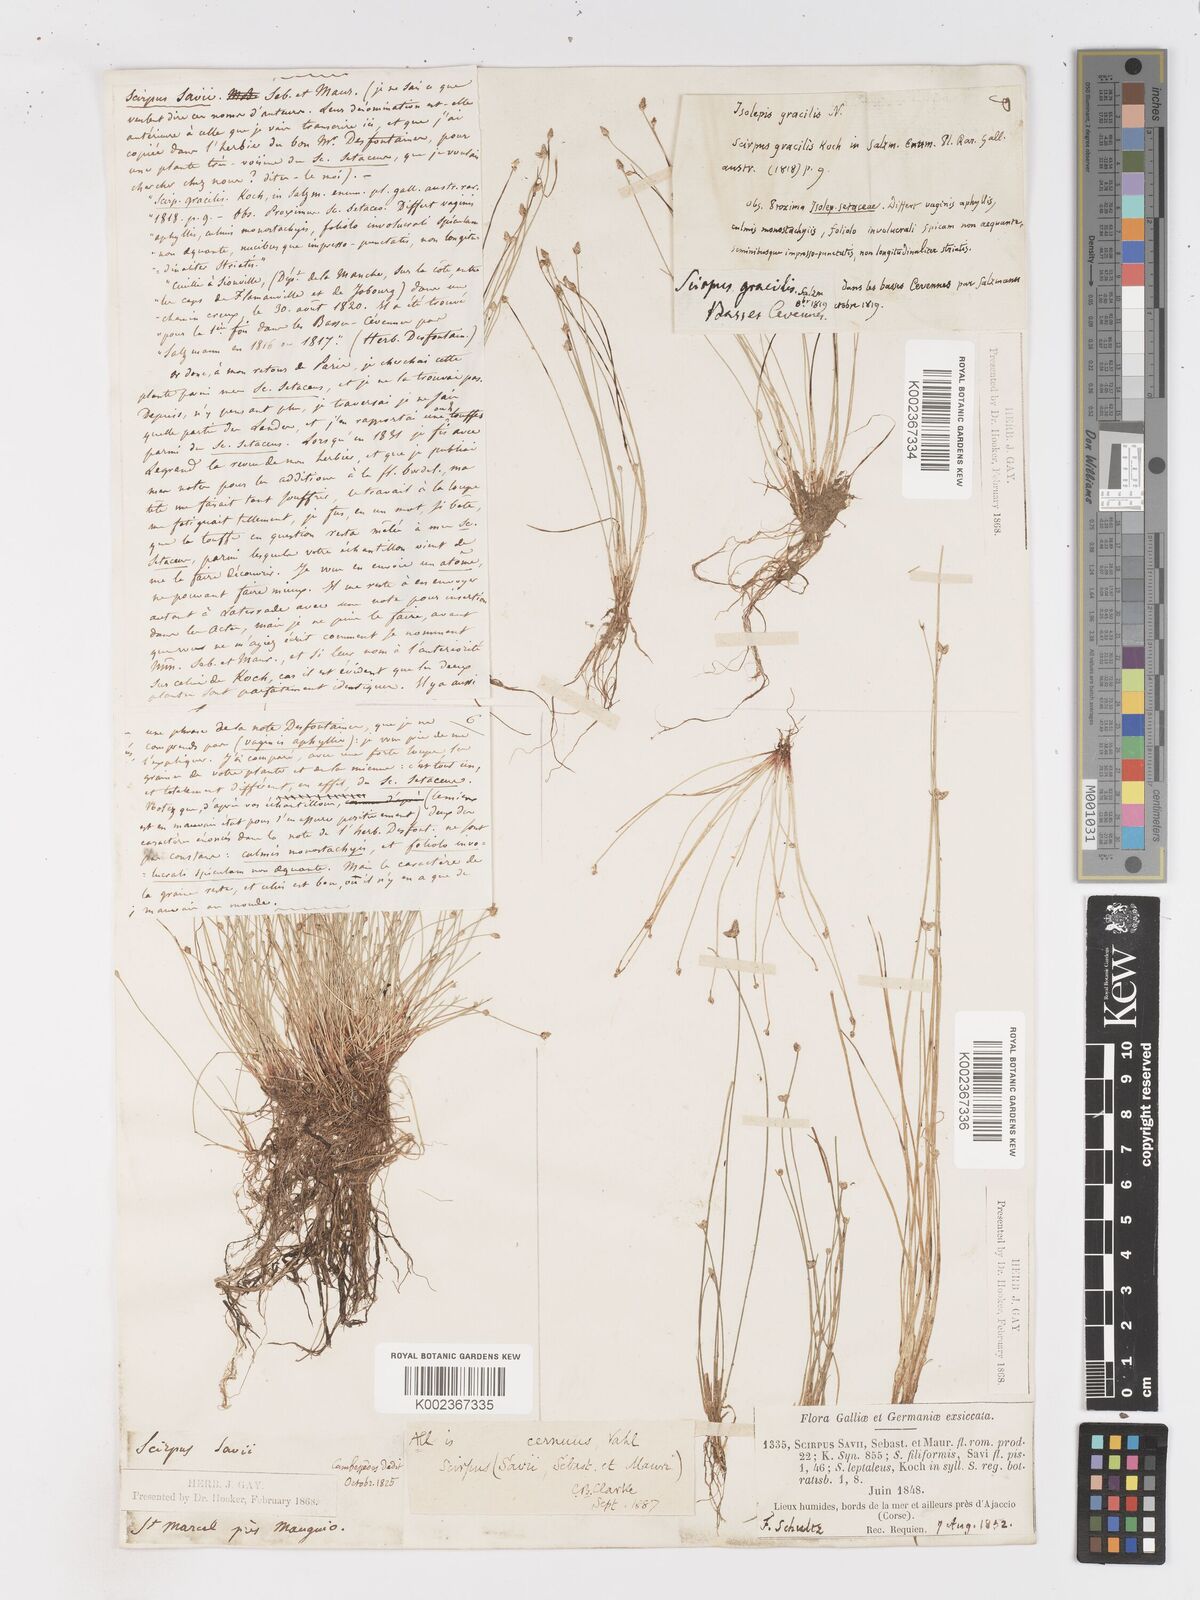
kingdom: Plantae
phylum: Tracheophyta
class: Liliopsida
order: Poales
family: Cyperaceae
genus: Isolepis
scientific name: Isolepis cernua
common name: Slender club-rush
